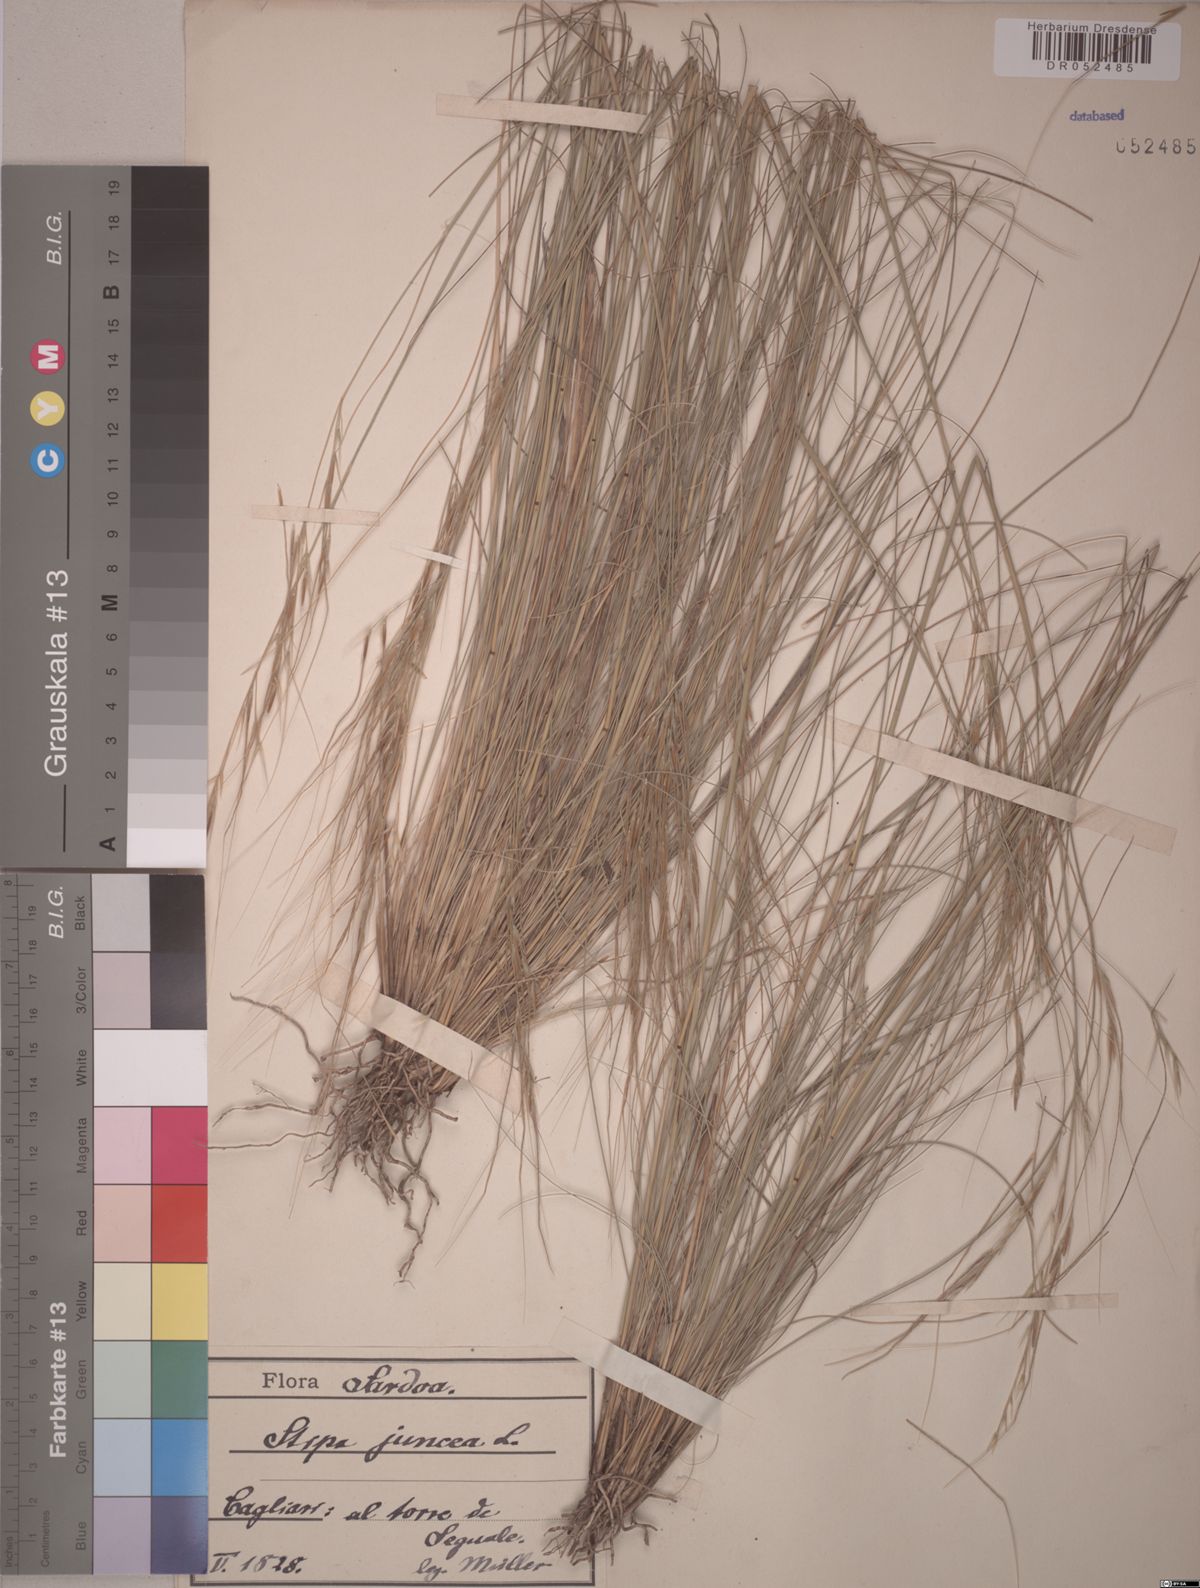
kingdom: Plantae
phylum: Tracheophyta
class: Liliopsida
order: Poales
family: Poaceae
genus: Stipa
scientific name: Stipa juncea
